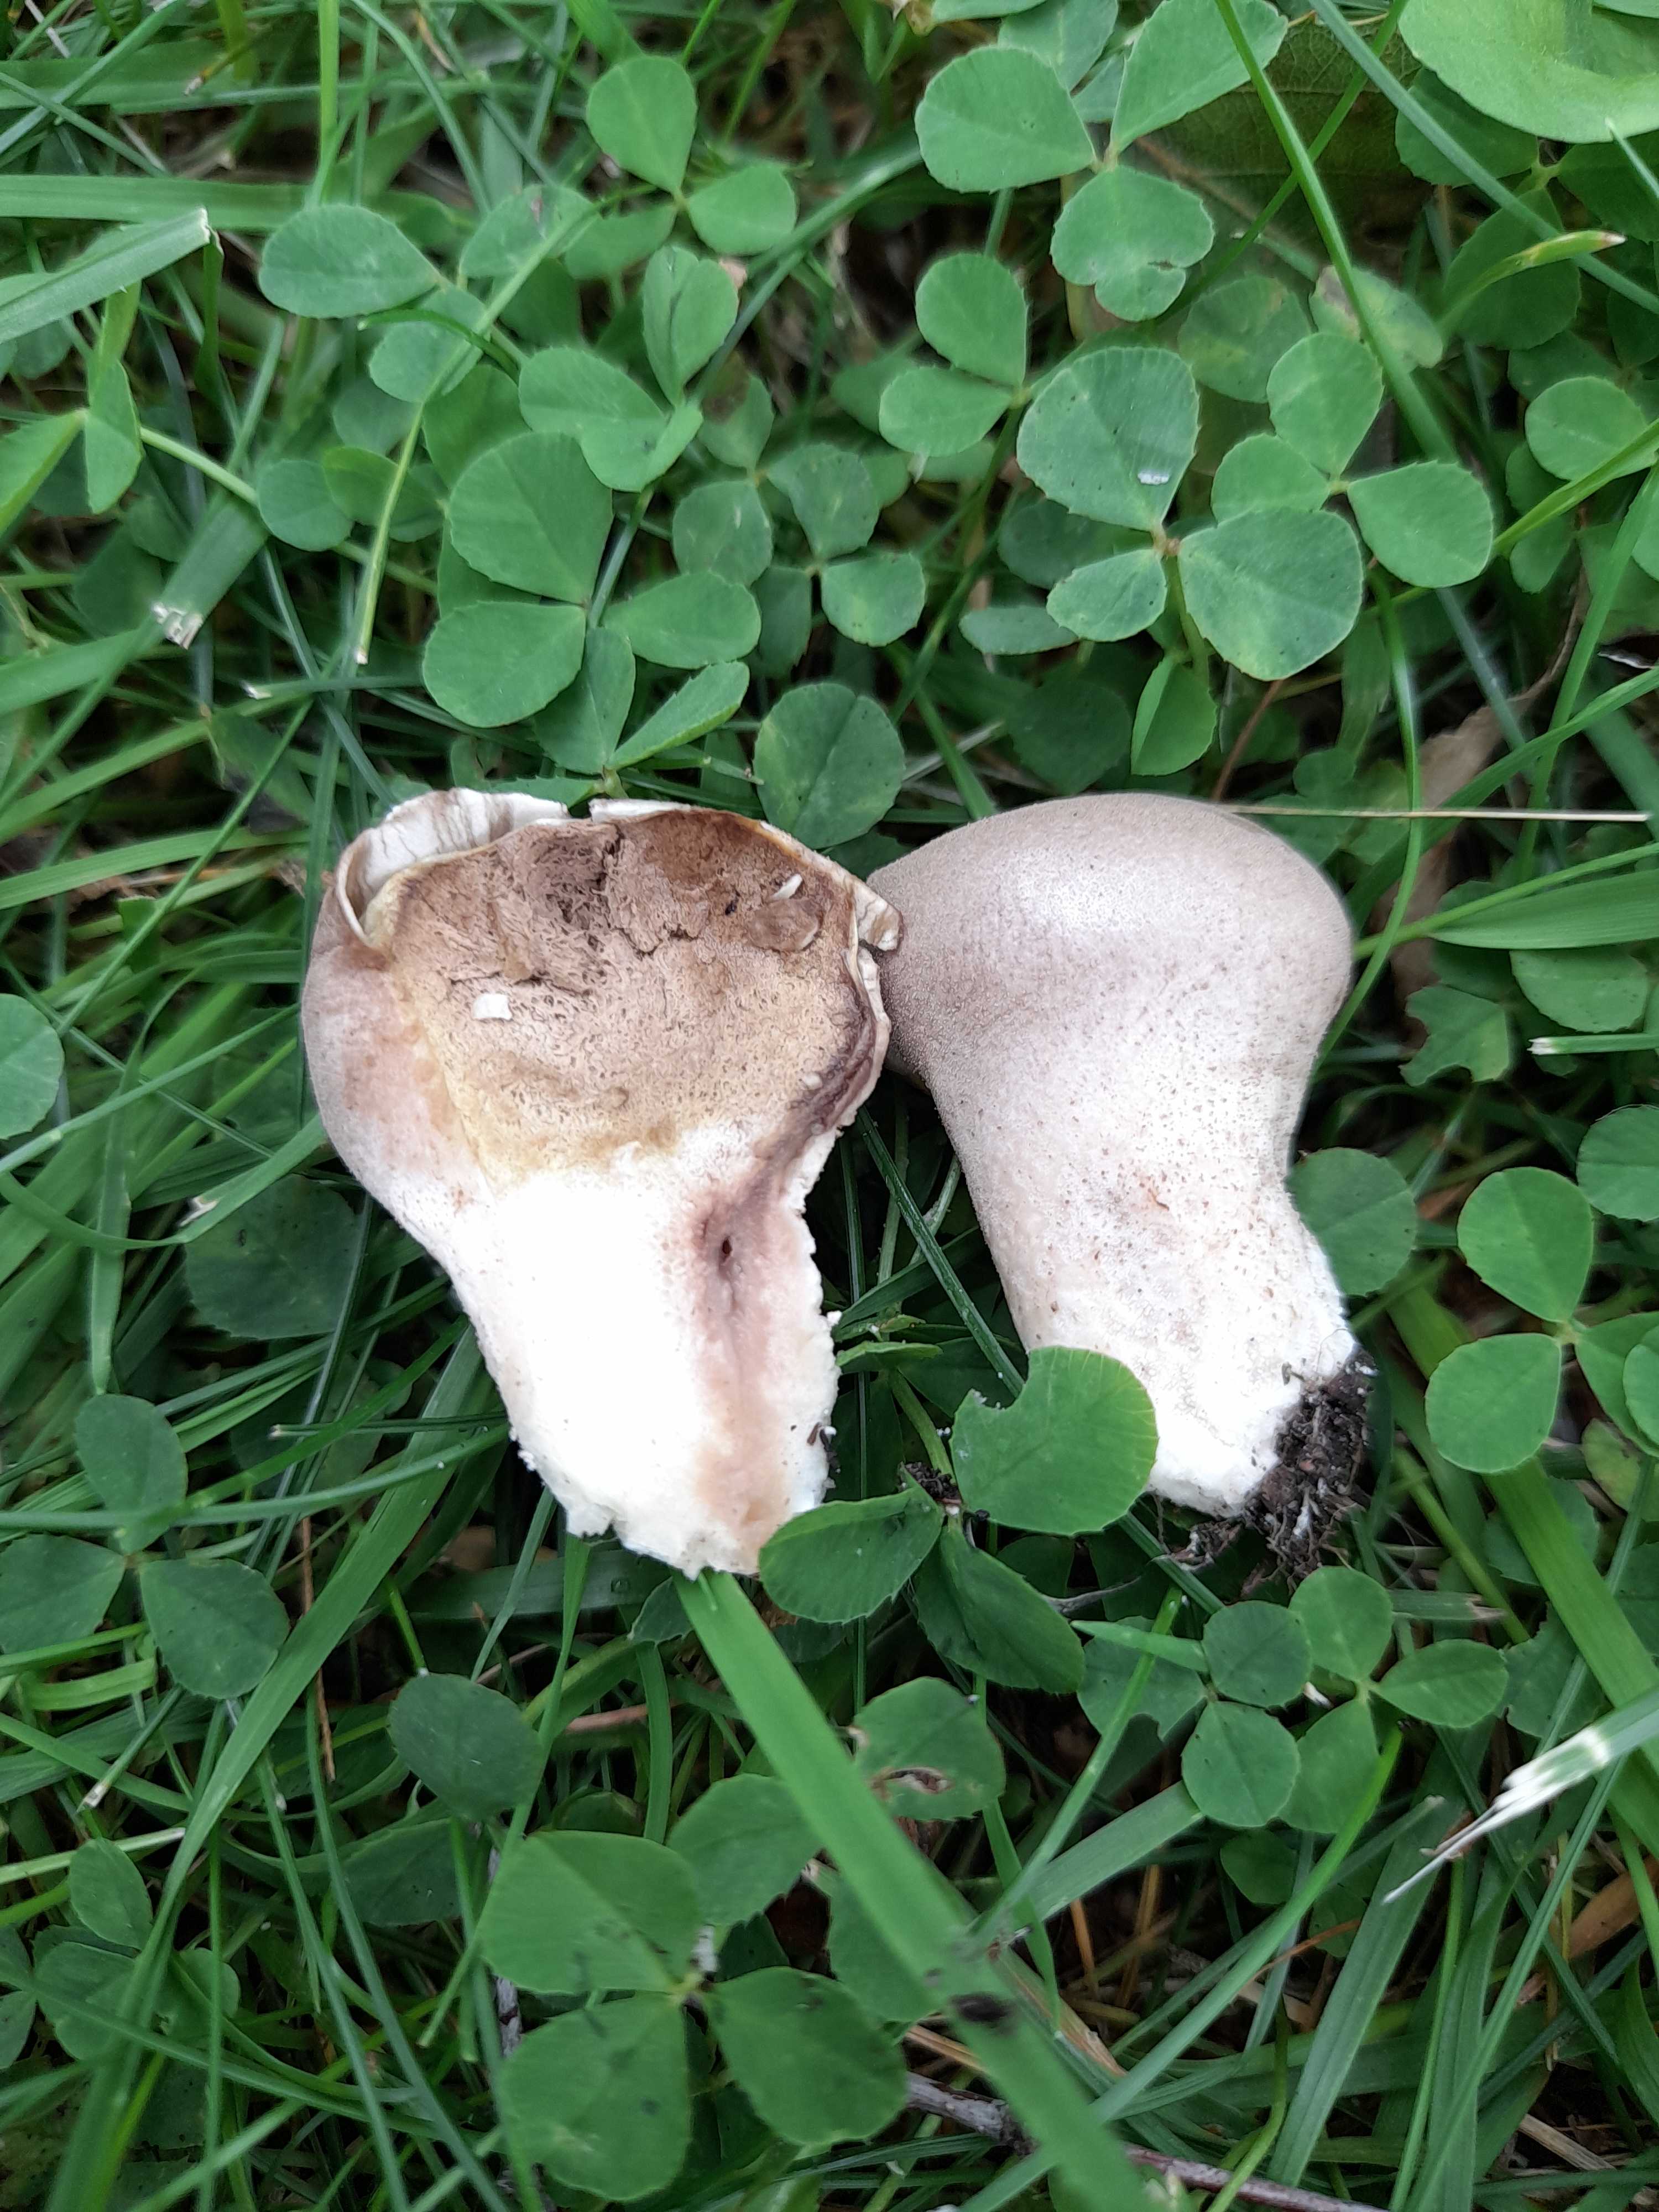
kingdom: Fungi
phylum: Basidiomycota
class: Agaricomycetes
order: Agaricales
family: Lycoperdaceae
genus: Lycoperdon
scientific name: Lycoperdon pratense
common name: flad støvbold
